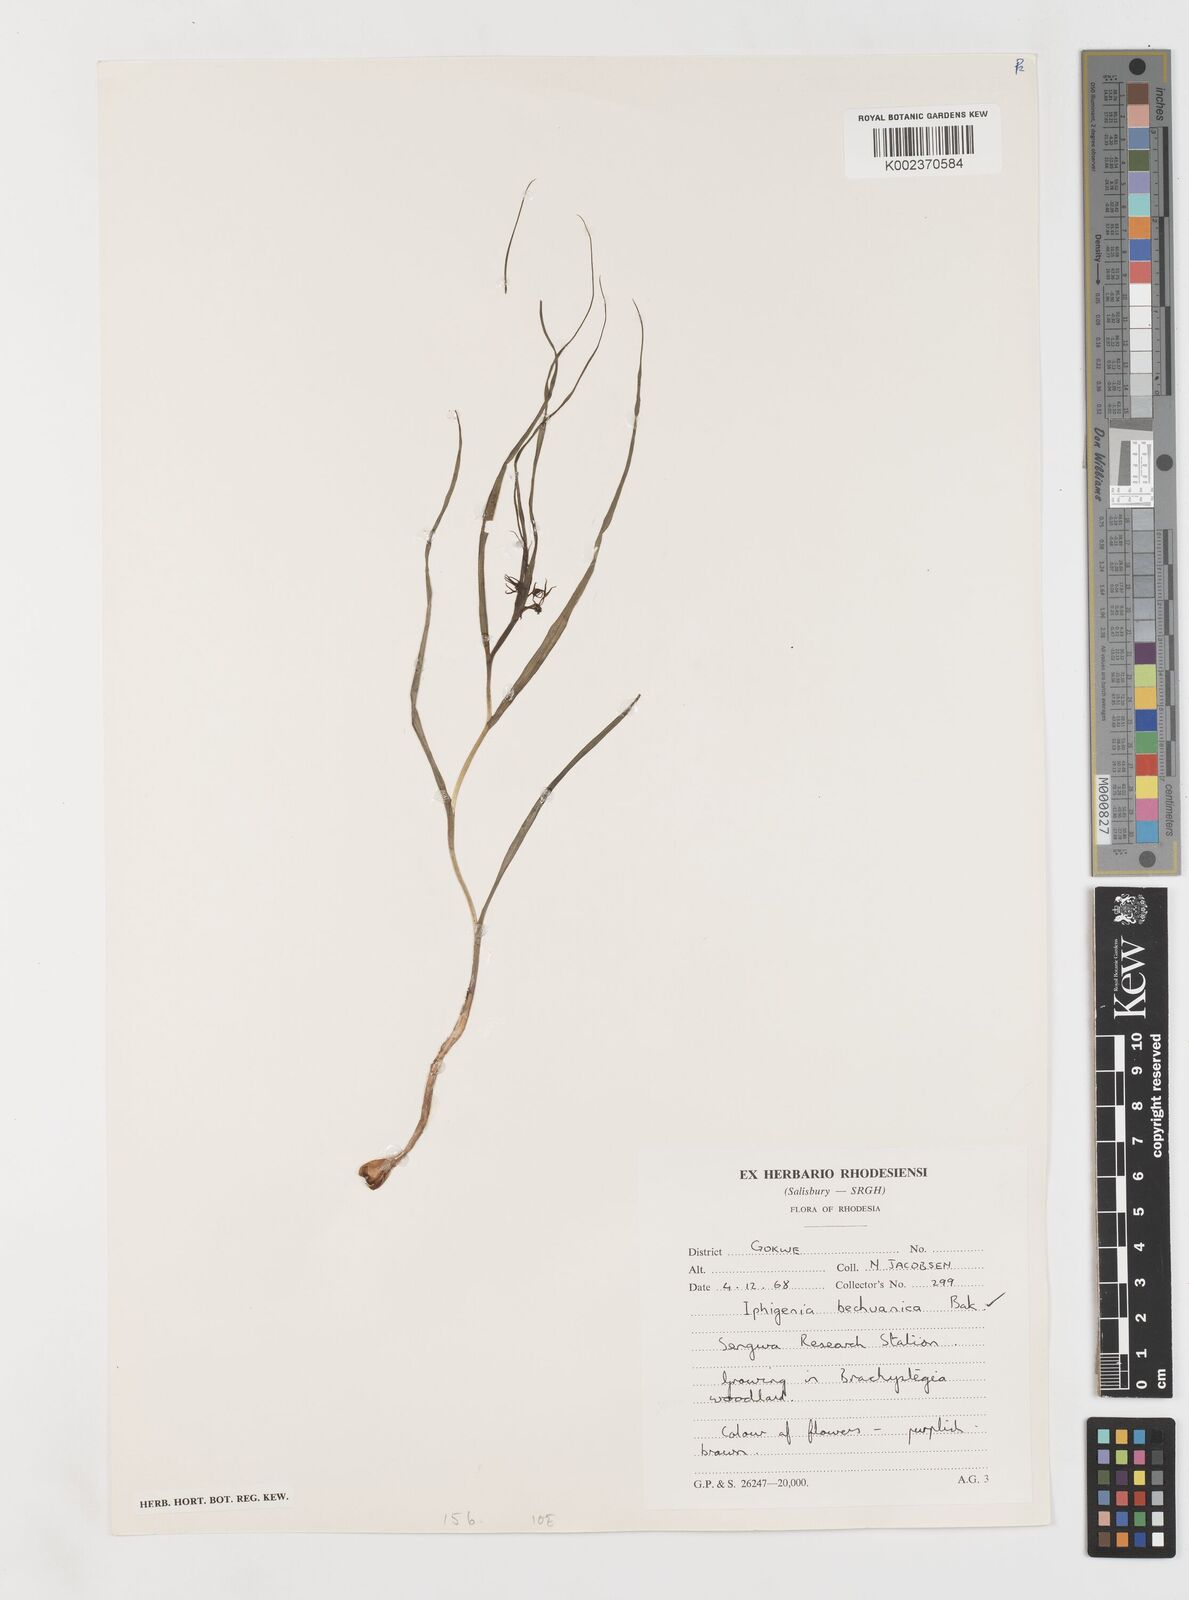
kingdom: Plantae
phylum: Tracheophyta
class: Liliopsida
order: Liliales
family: Colchicaceae
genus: Iphigenia
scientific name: Iphigenia oliveri
